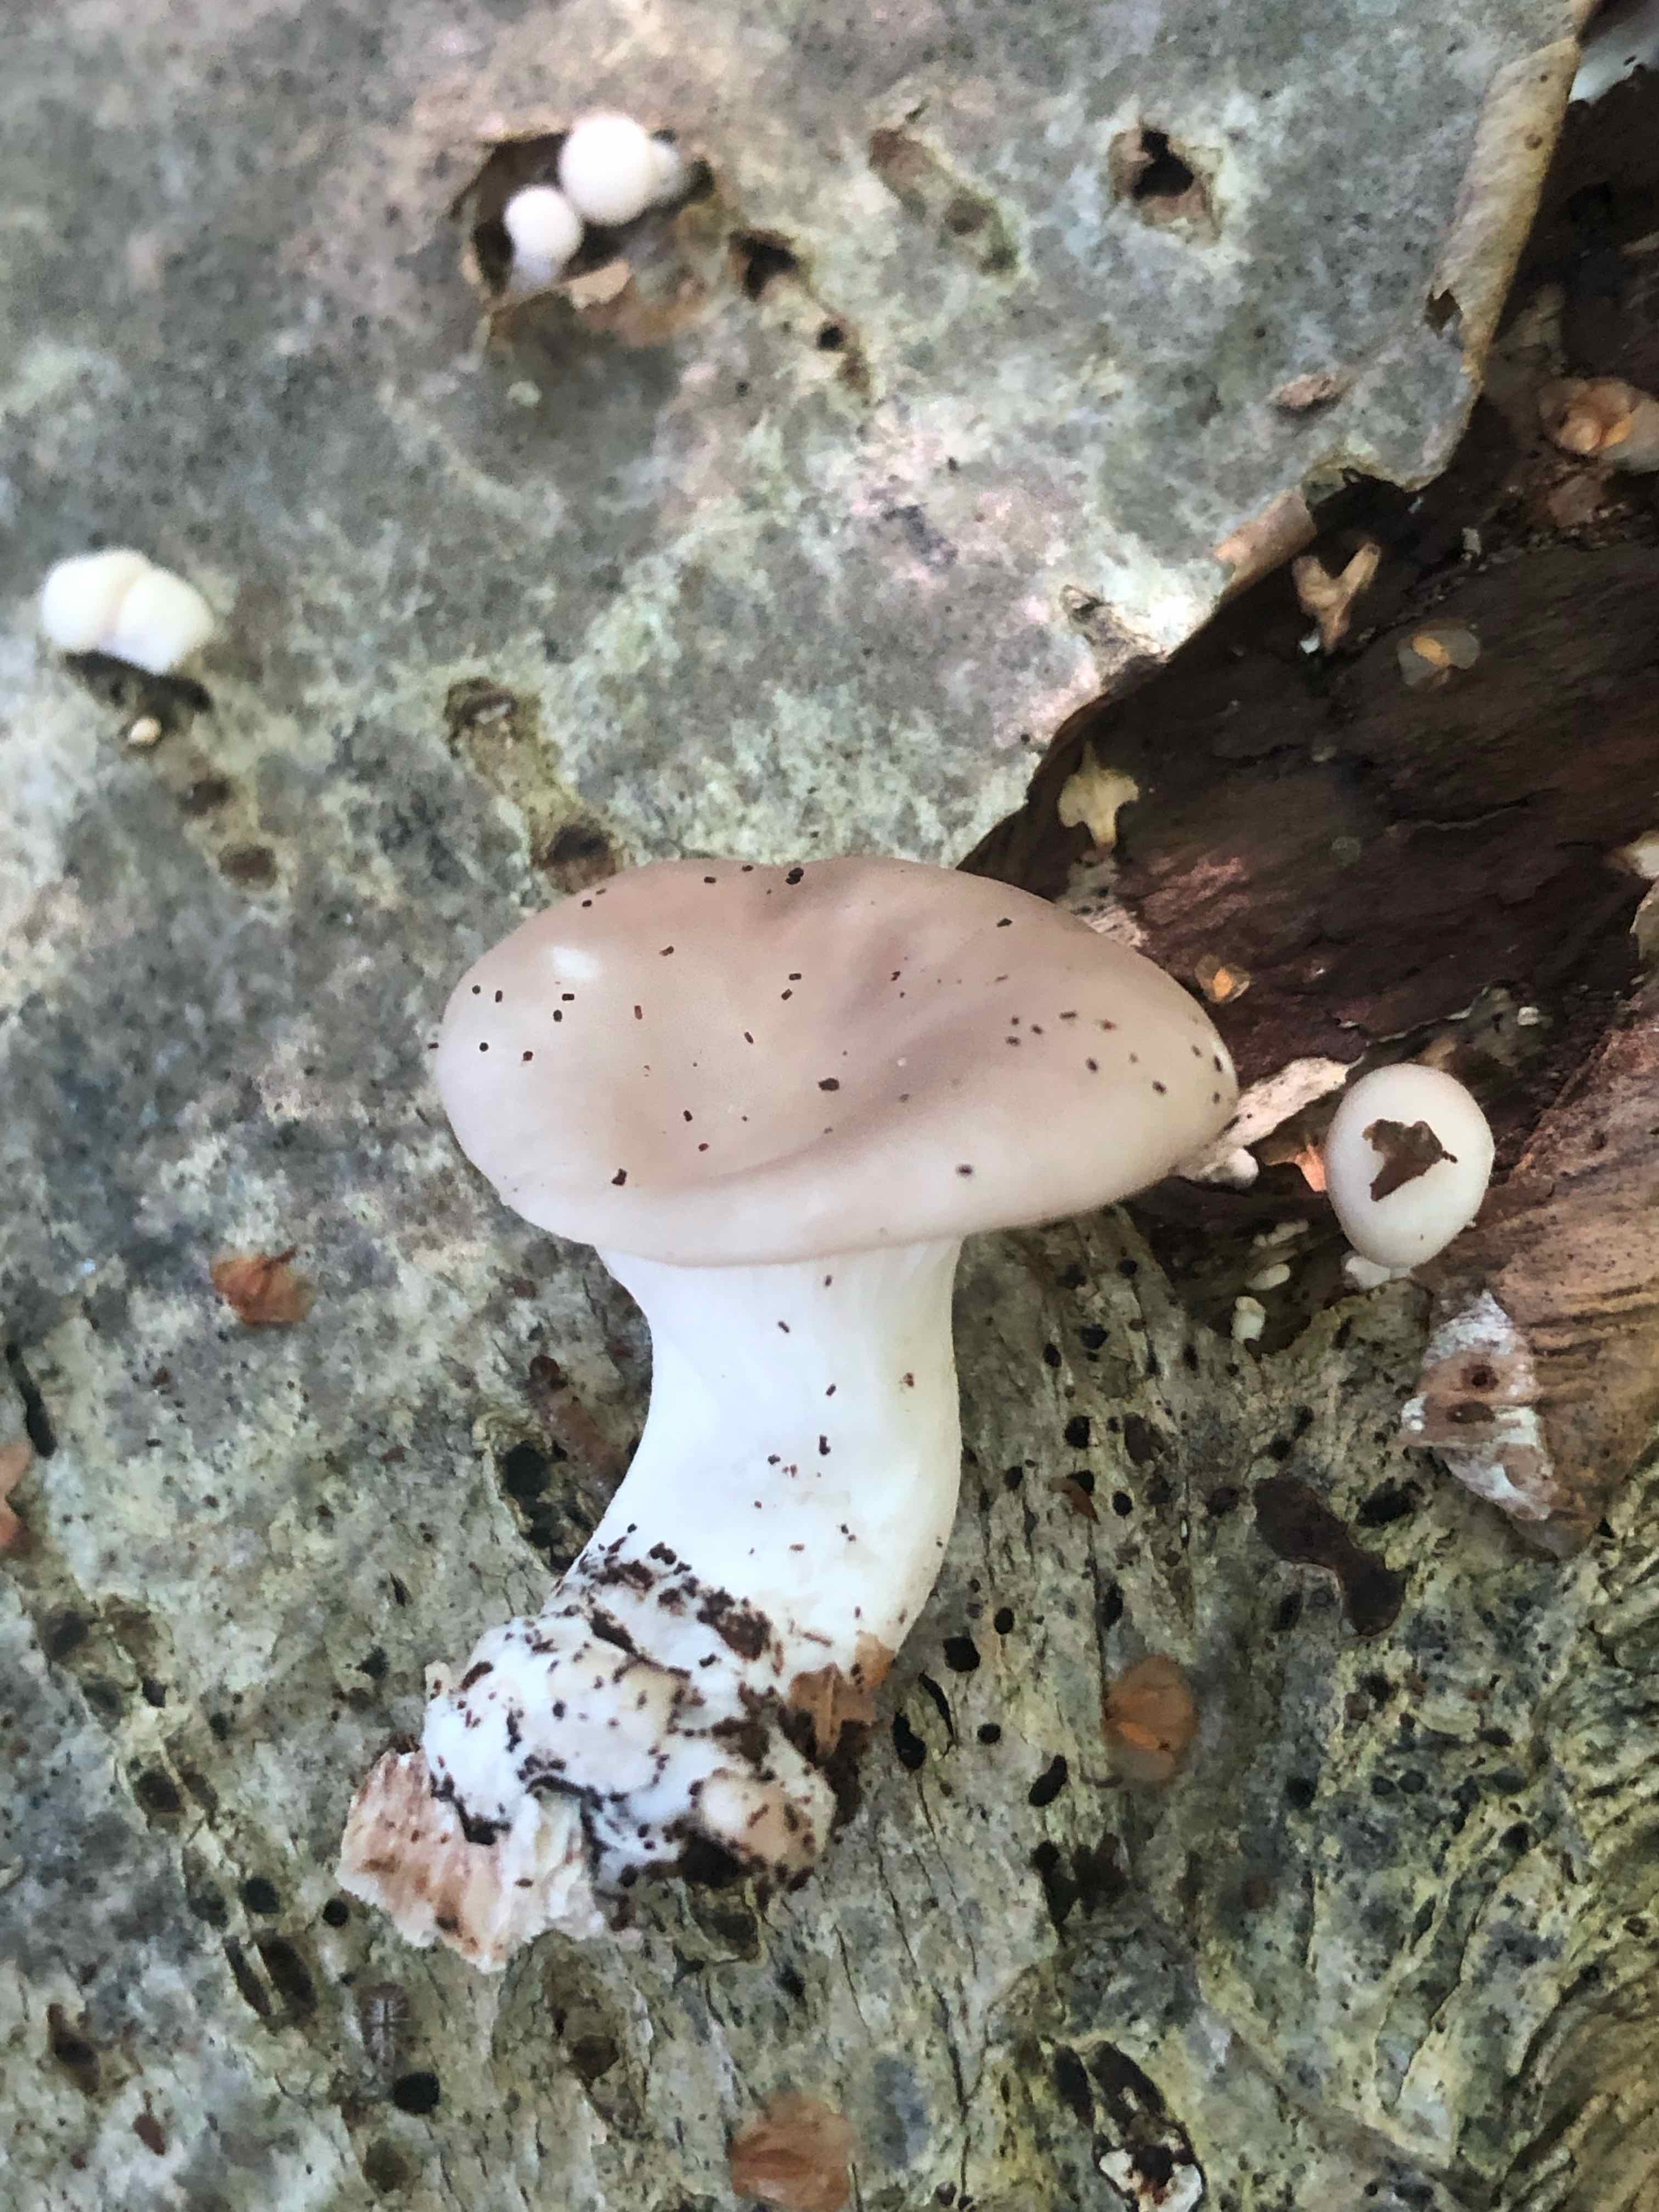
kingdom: Fungi
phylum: Basidiomycota
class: Agaricomycetes
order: Agaricales
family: Pleurotaceae
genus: Pleurotus
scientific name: Pleurotus ostreatus
